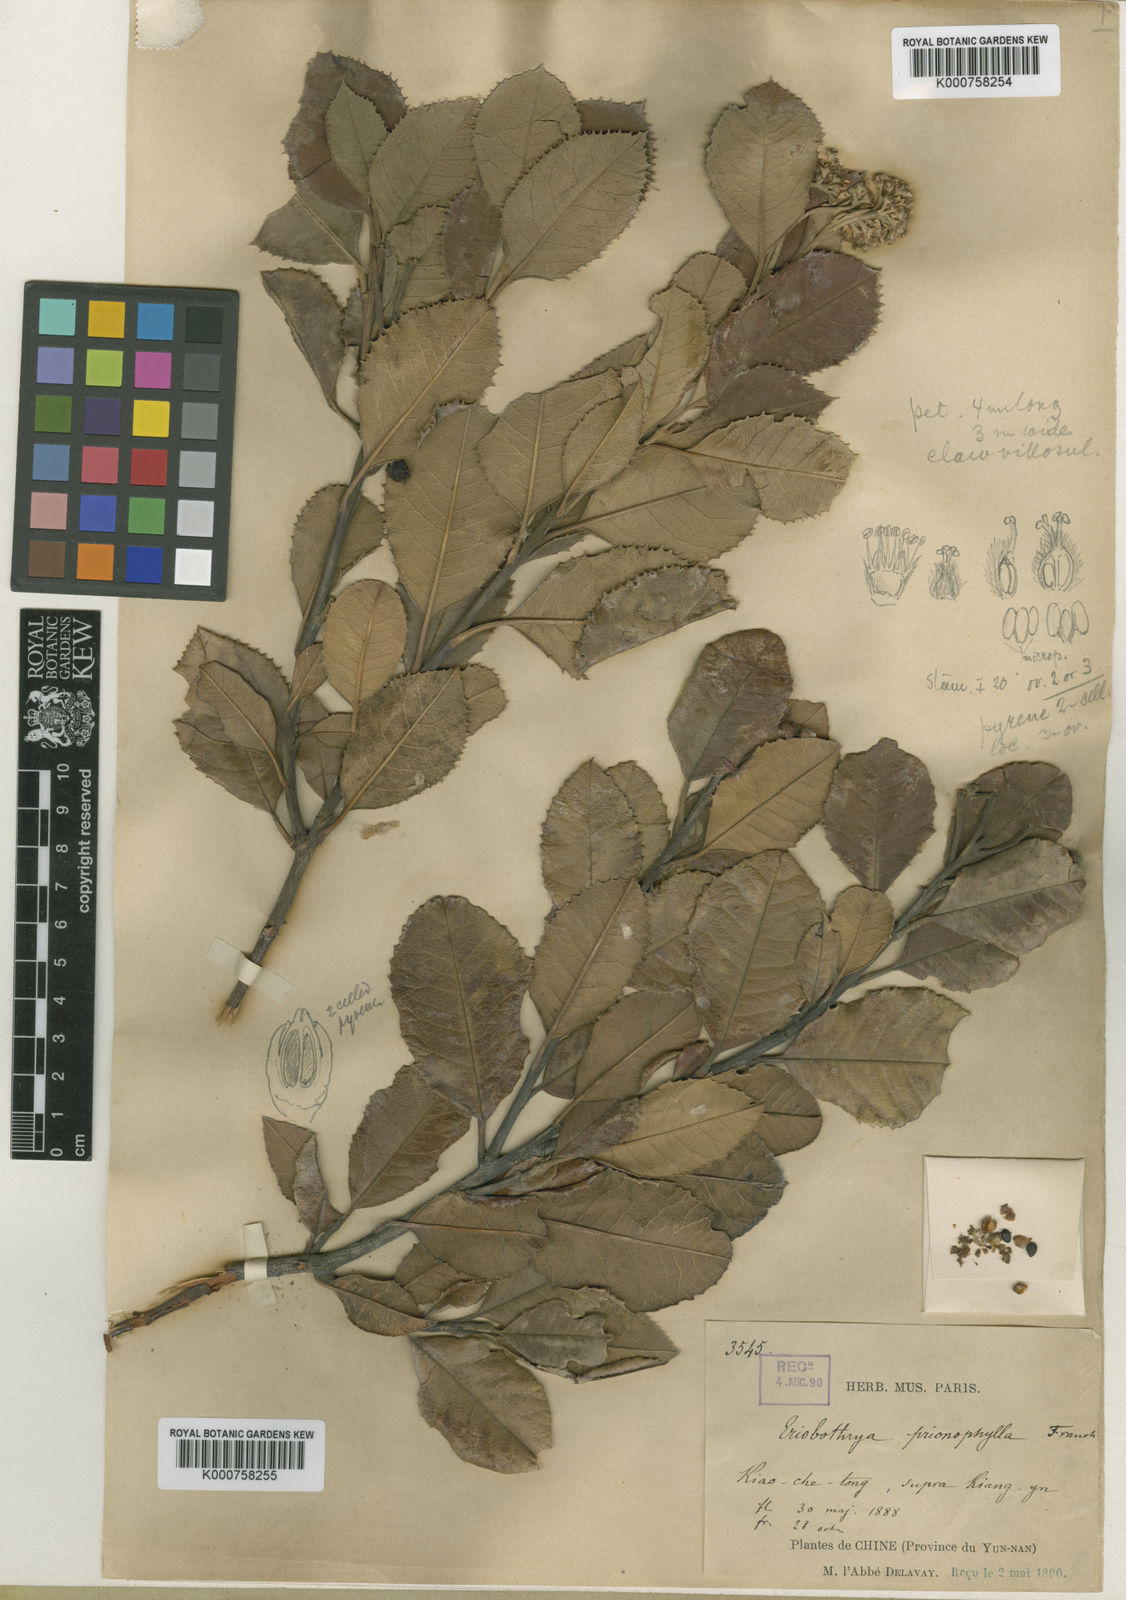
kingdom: Plantae
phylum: Tracheophyta
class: Magnoliopsida
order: Rosales
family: Rosaceae
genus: Photinia
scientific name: Photinia prionophylla
